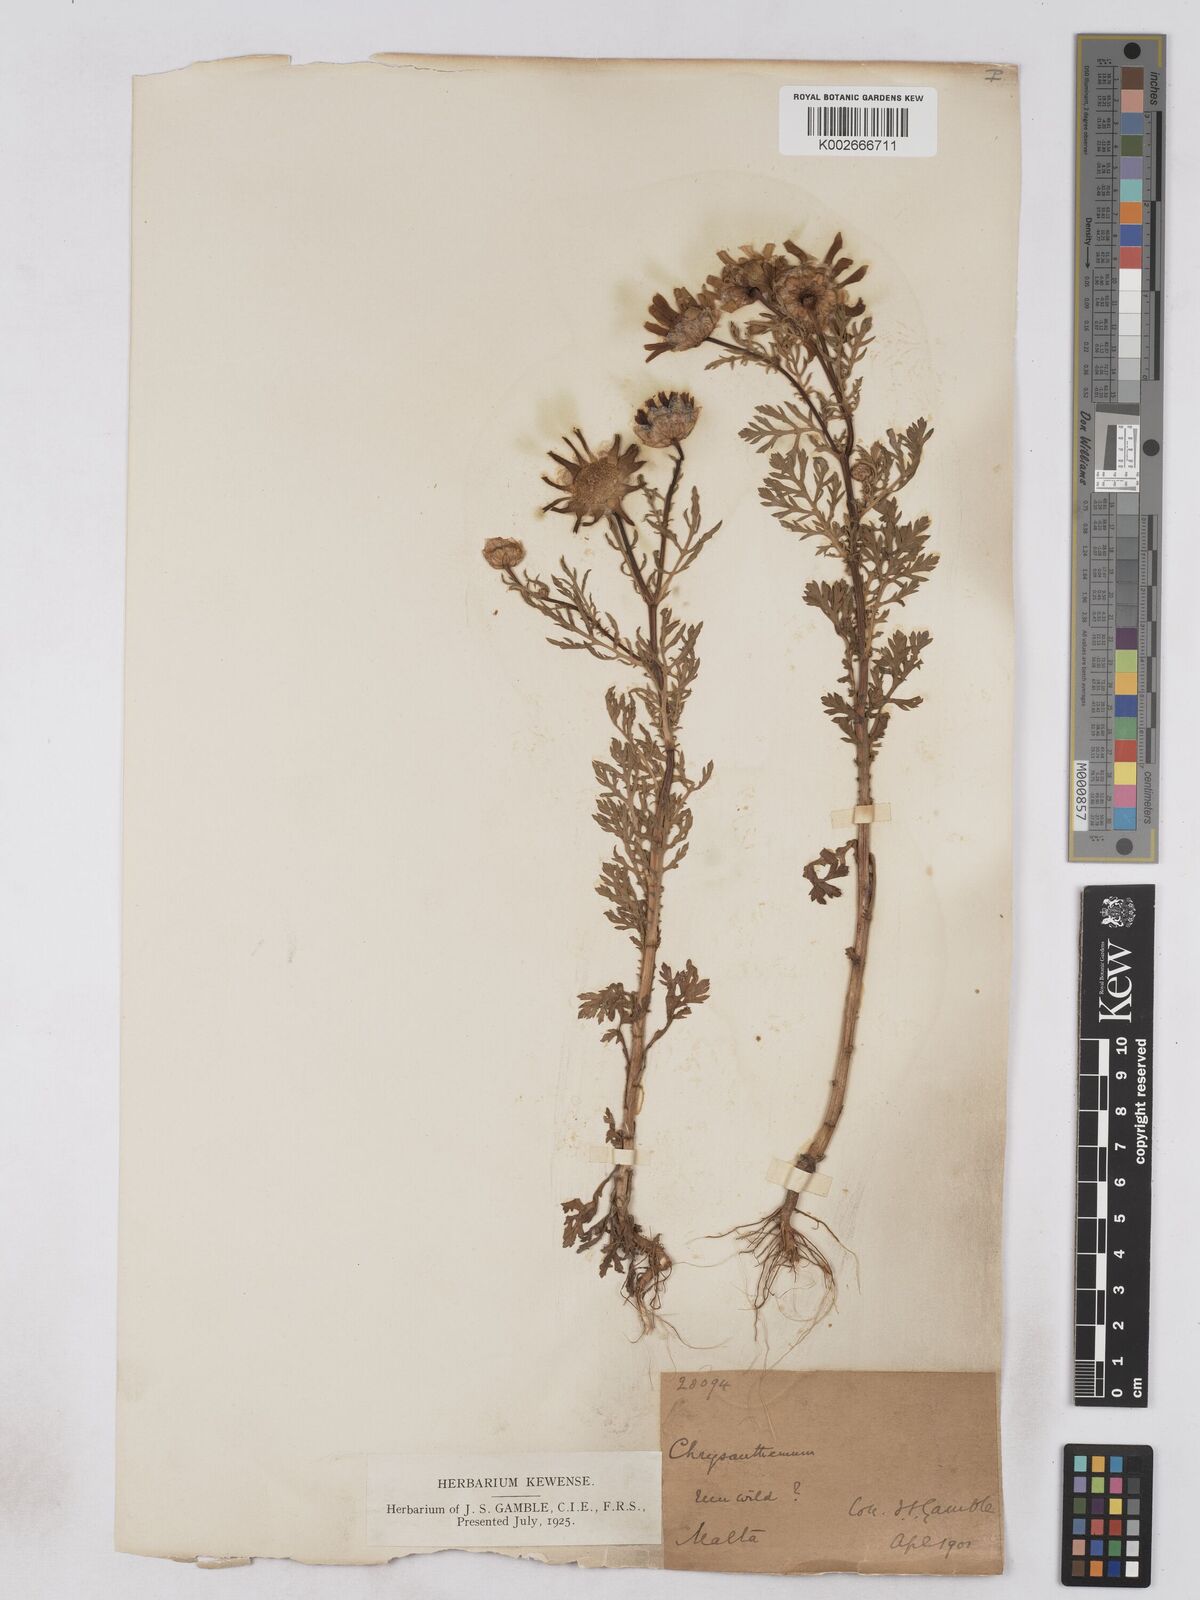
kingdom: Plantae
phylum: Tracheophyta
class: Magnoliopsida
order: Asterales
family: Asteraceae
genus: Glebionis
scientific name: Glebionis coronaria
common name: Crowndaisy
